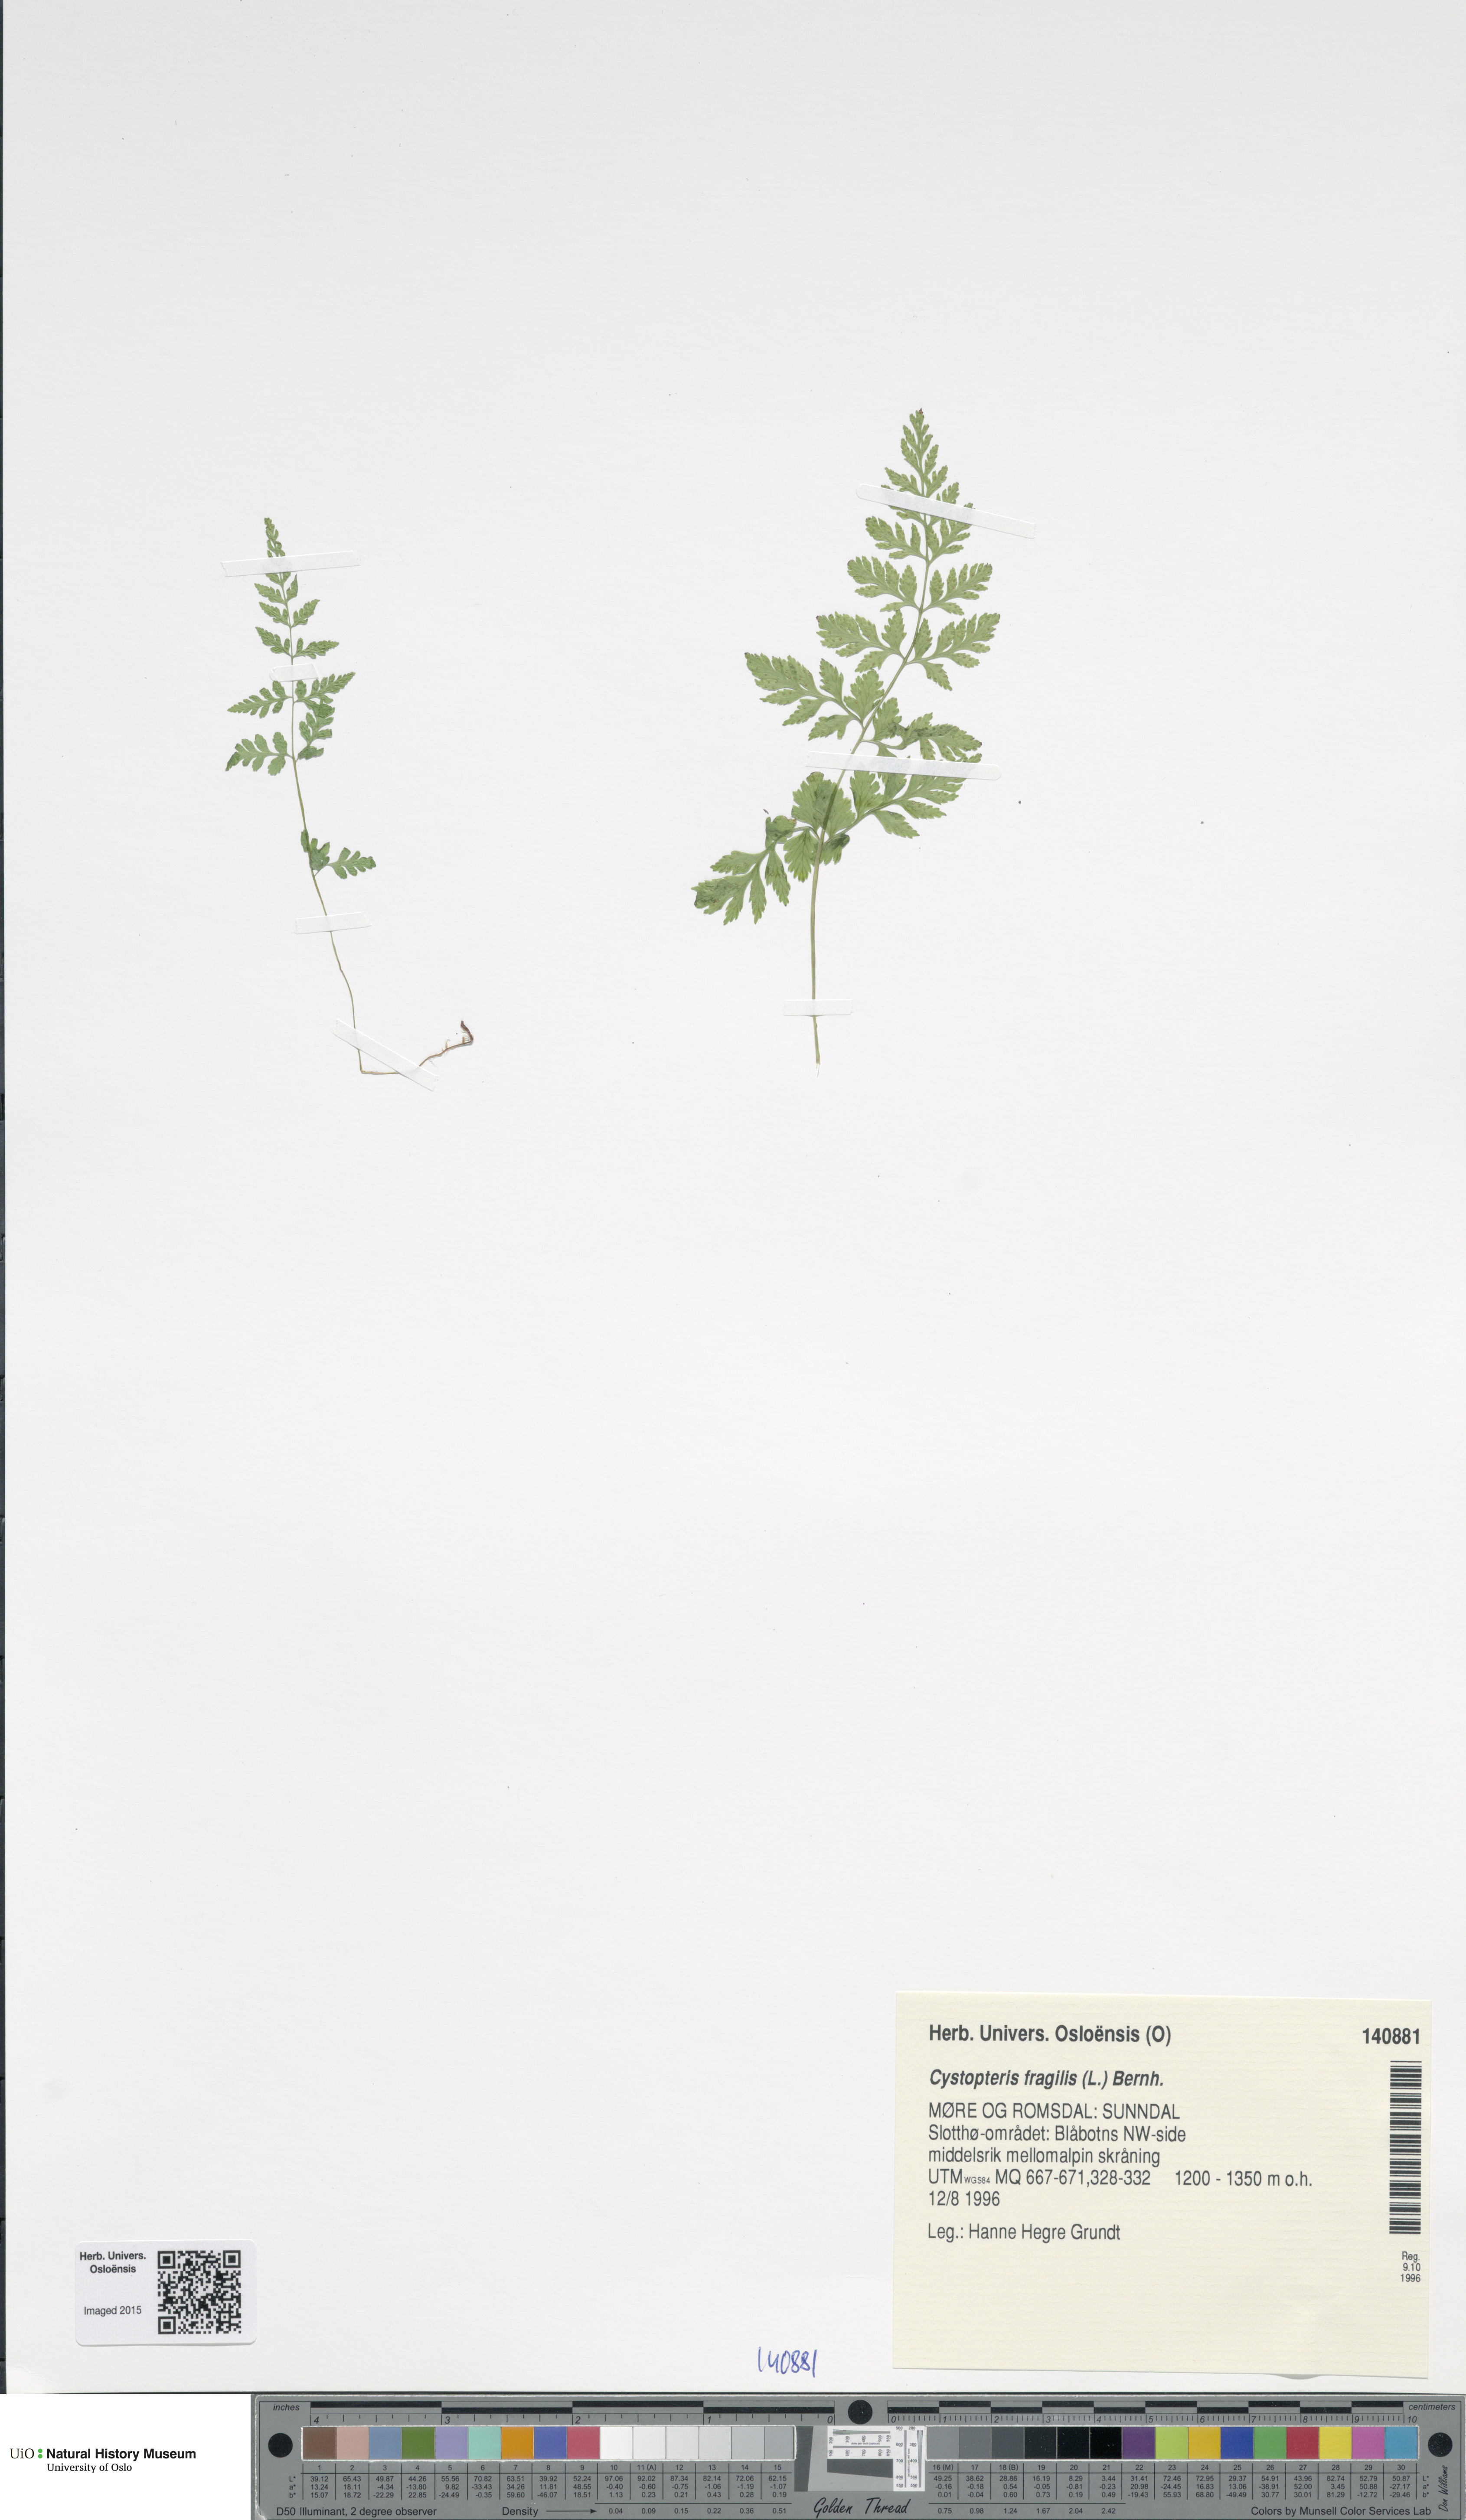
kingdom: Plantae
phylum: Tracheophyta
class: Polypodiopsida
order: Polypodiales
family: Cystopteridaceae
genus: Cystopteris
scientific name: Cystopteris fragilis
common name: Brittle bladder fern
